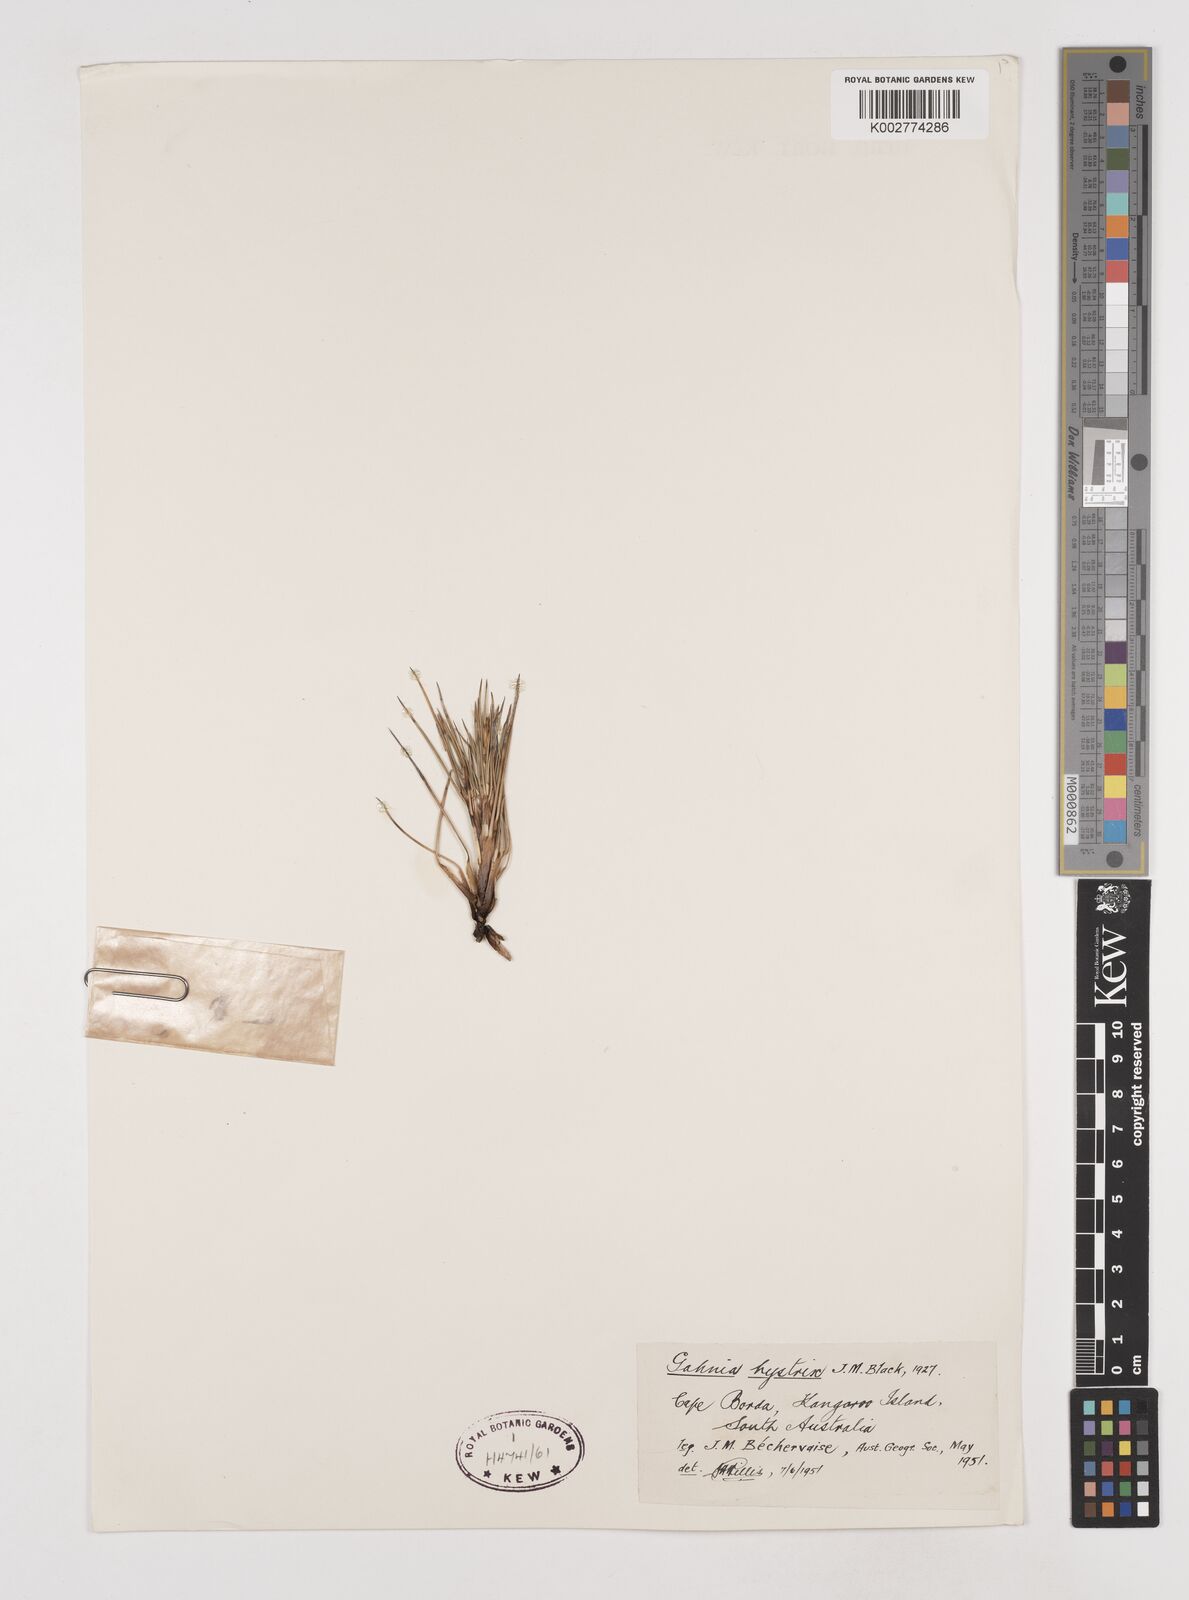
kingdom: Plantae
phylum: Tracheophyta
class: Liliopsida
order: Poales
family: Cyperaceae
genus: Gahnia
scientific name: Gahnia hystrix
